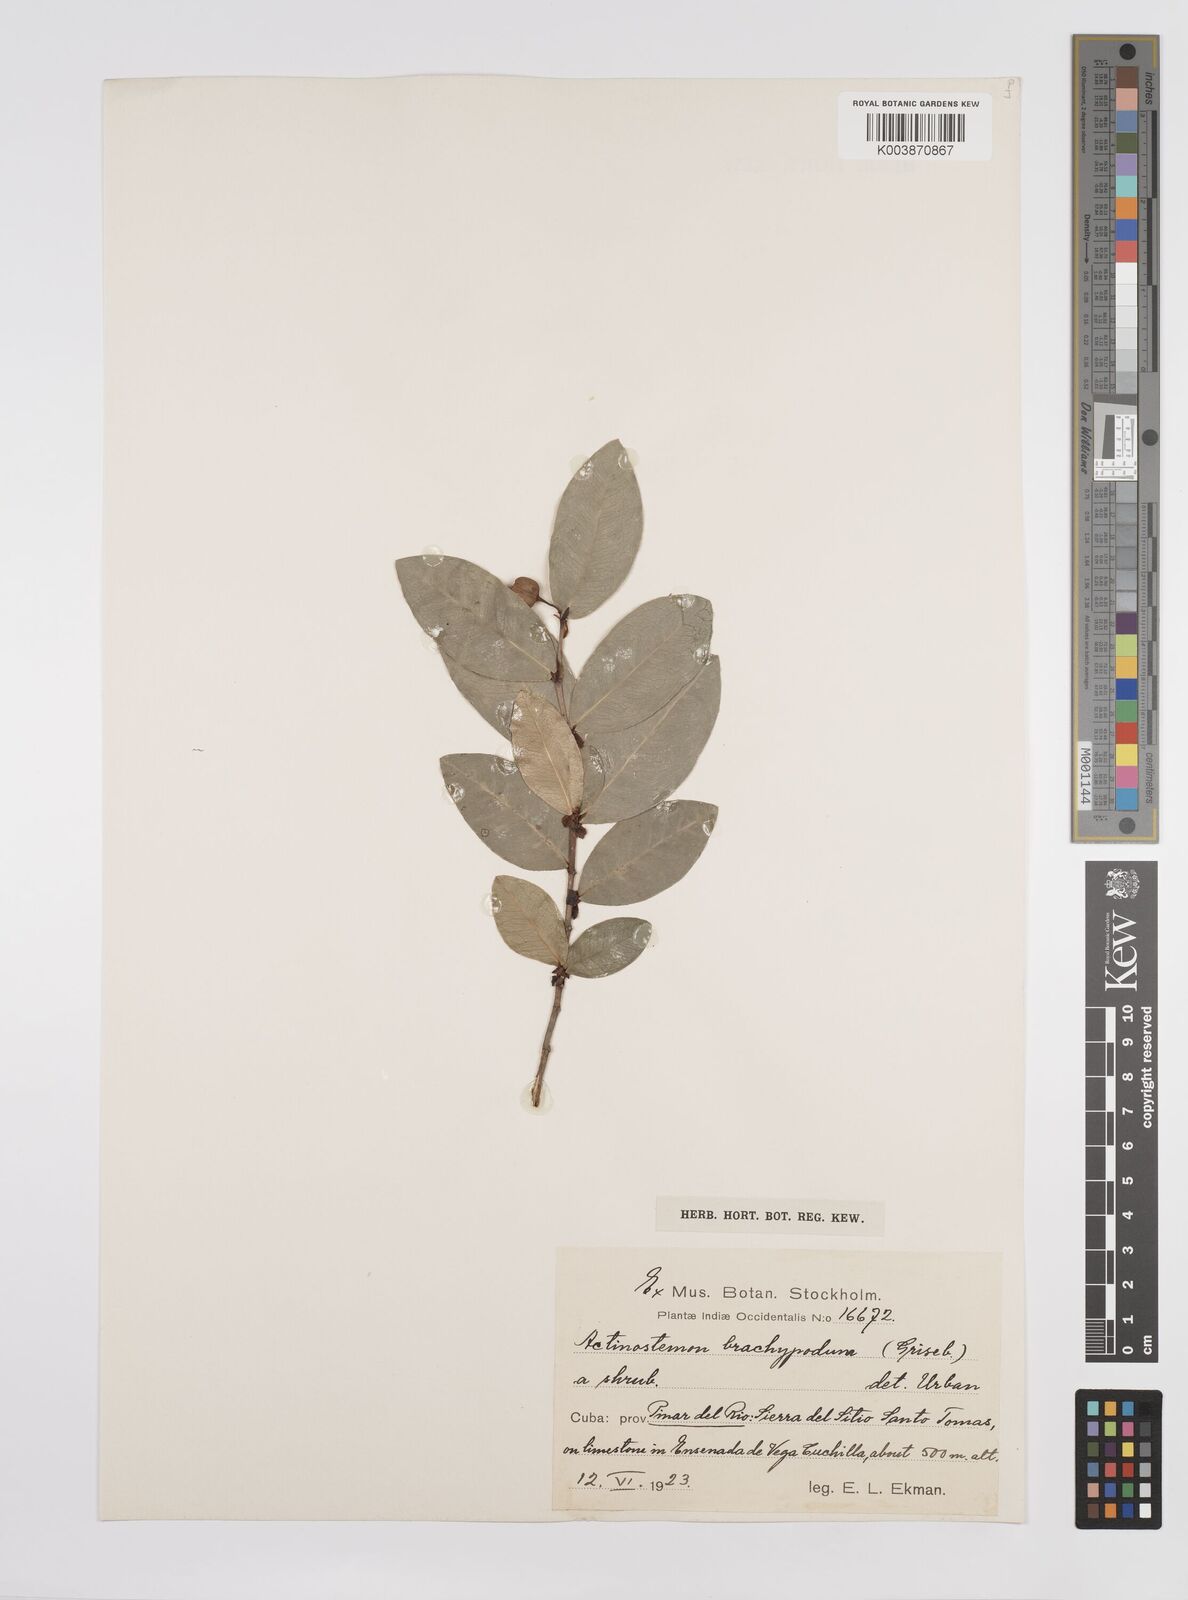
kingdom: Plantae
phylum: Tracheophyta
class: Magnoliopsida
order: Malpighiales
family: Euphorbiaceae
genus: Actinostemon
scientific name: Actinostemon brachypodus
